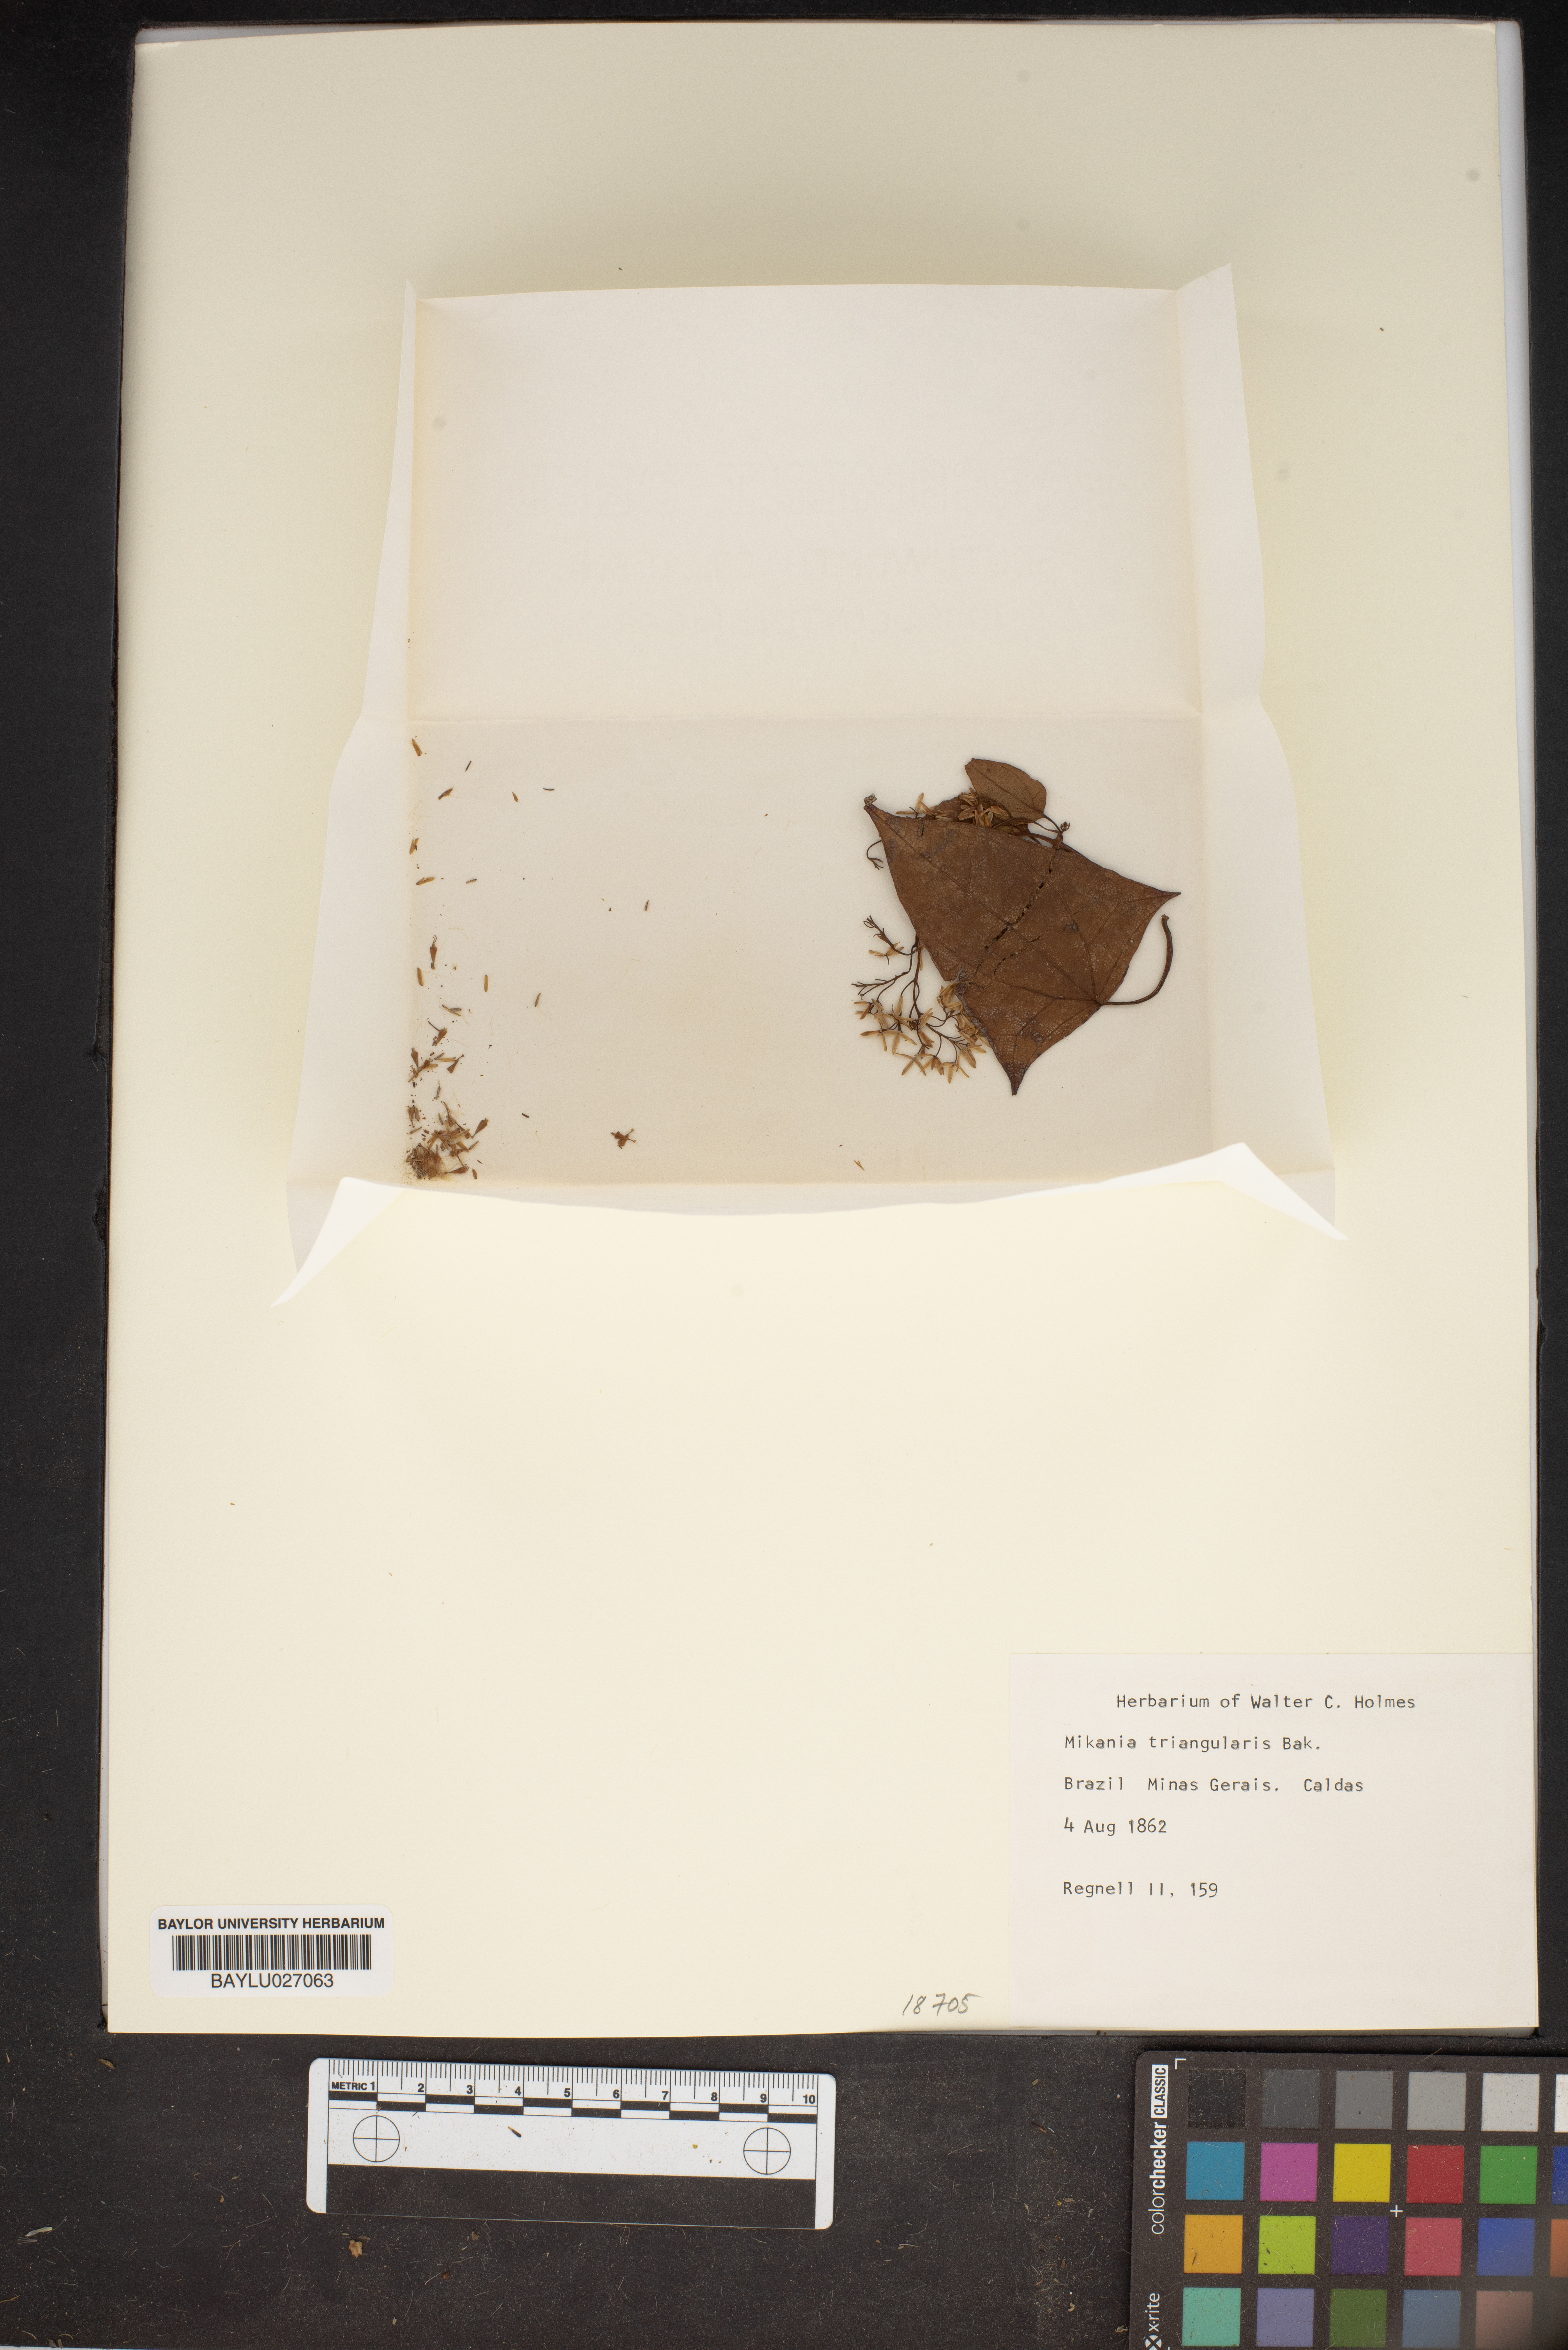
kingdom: Plantae
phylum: Tracheophyta
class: Magnoliopsida
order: Asterales
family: Asteraceae
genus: Mikania
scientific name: Mikania triangularis
